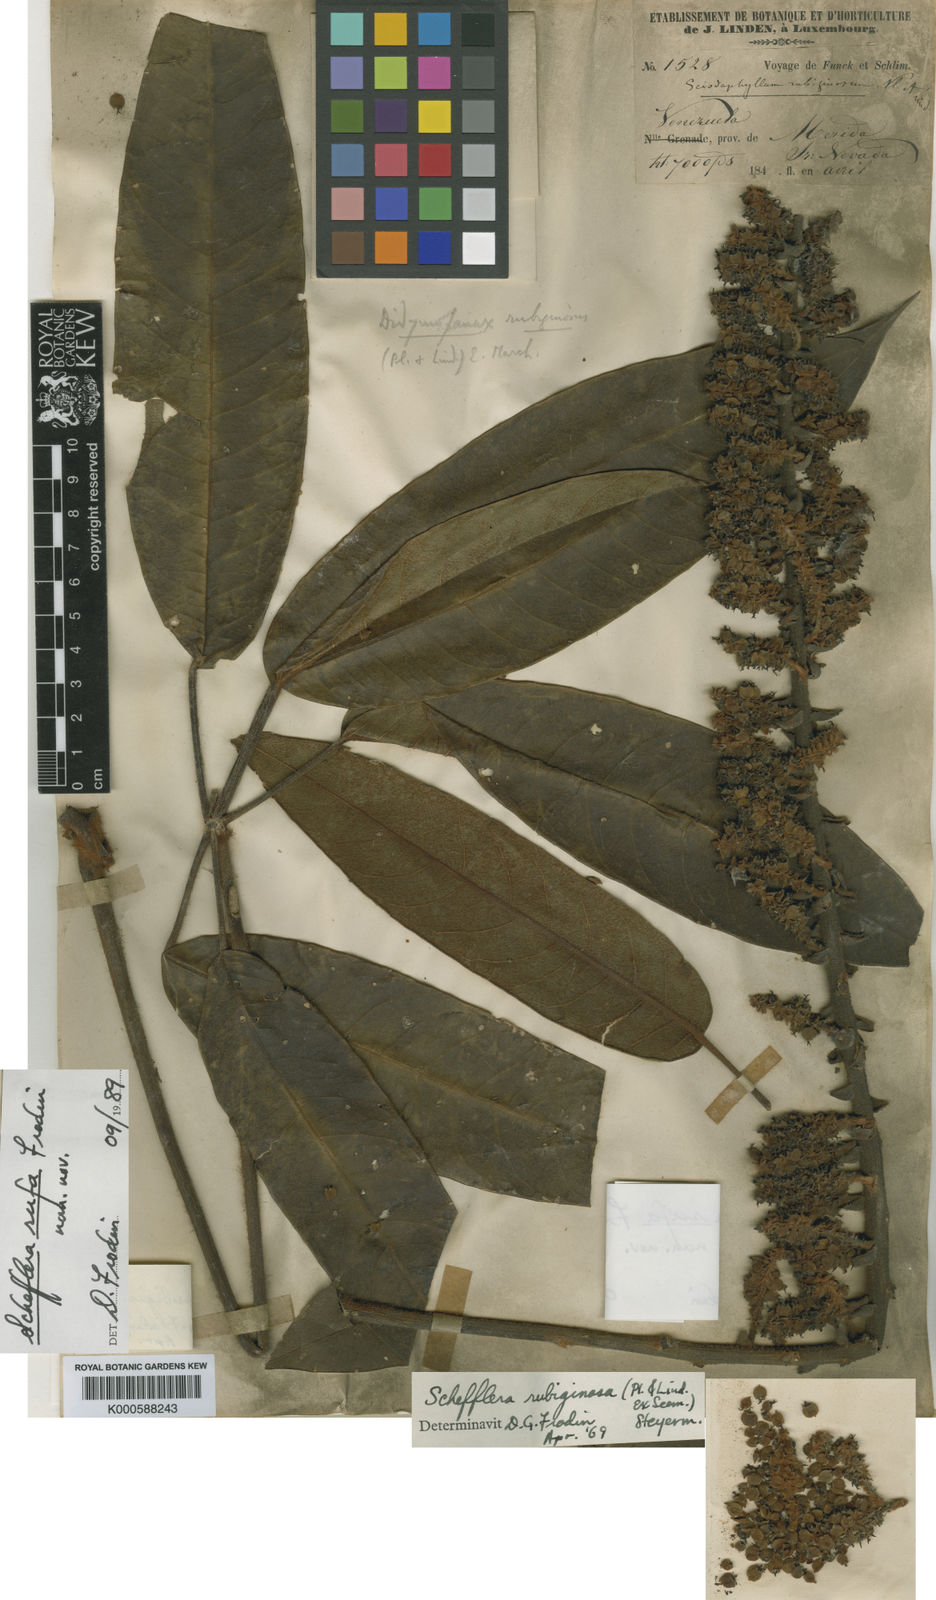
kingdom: Plantae
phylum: Tracheophyta
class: Magnoliopsida
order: Apiales
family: Araliaceae
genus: Sciodaphyllum
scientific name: Sciodaphyllum rubiginosum
